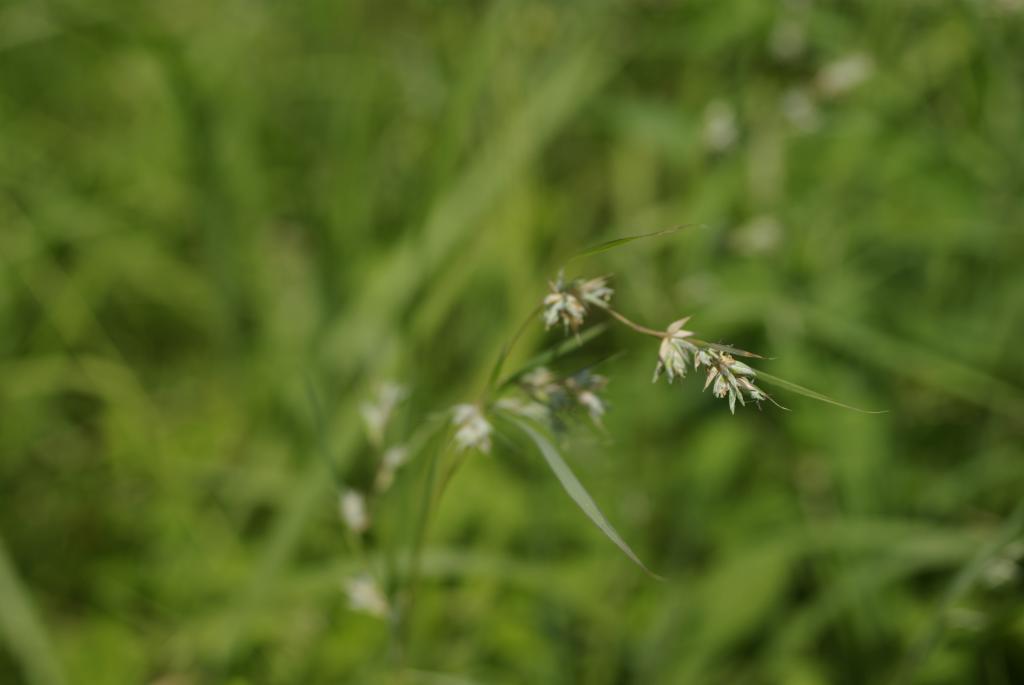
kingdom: Plantae
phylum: Tracheophyta
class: Liliopsida
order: Poales
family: Poaceae
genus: Apluda
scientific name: Apluda mutica
